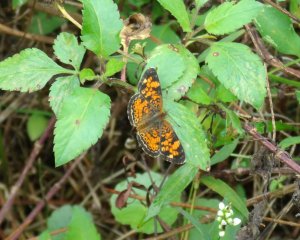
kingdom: Animalia
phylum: Arthropoda
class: Insecta
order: Lepidoptera
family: Nymphalidae
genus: Phyciodes
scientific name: Phyciodes tharos
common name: Pearl Crescent
